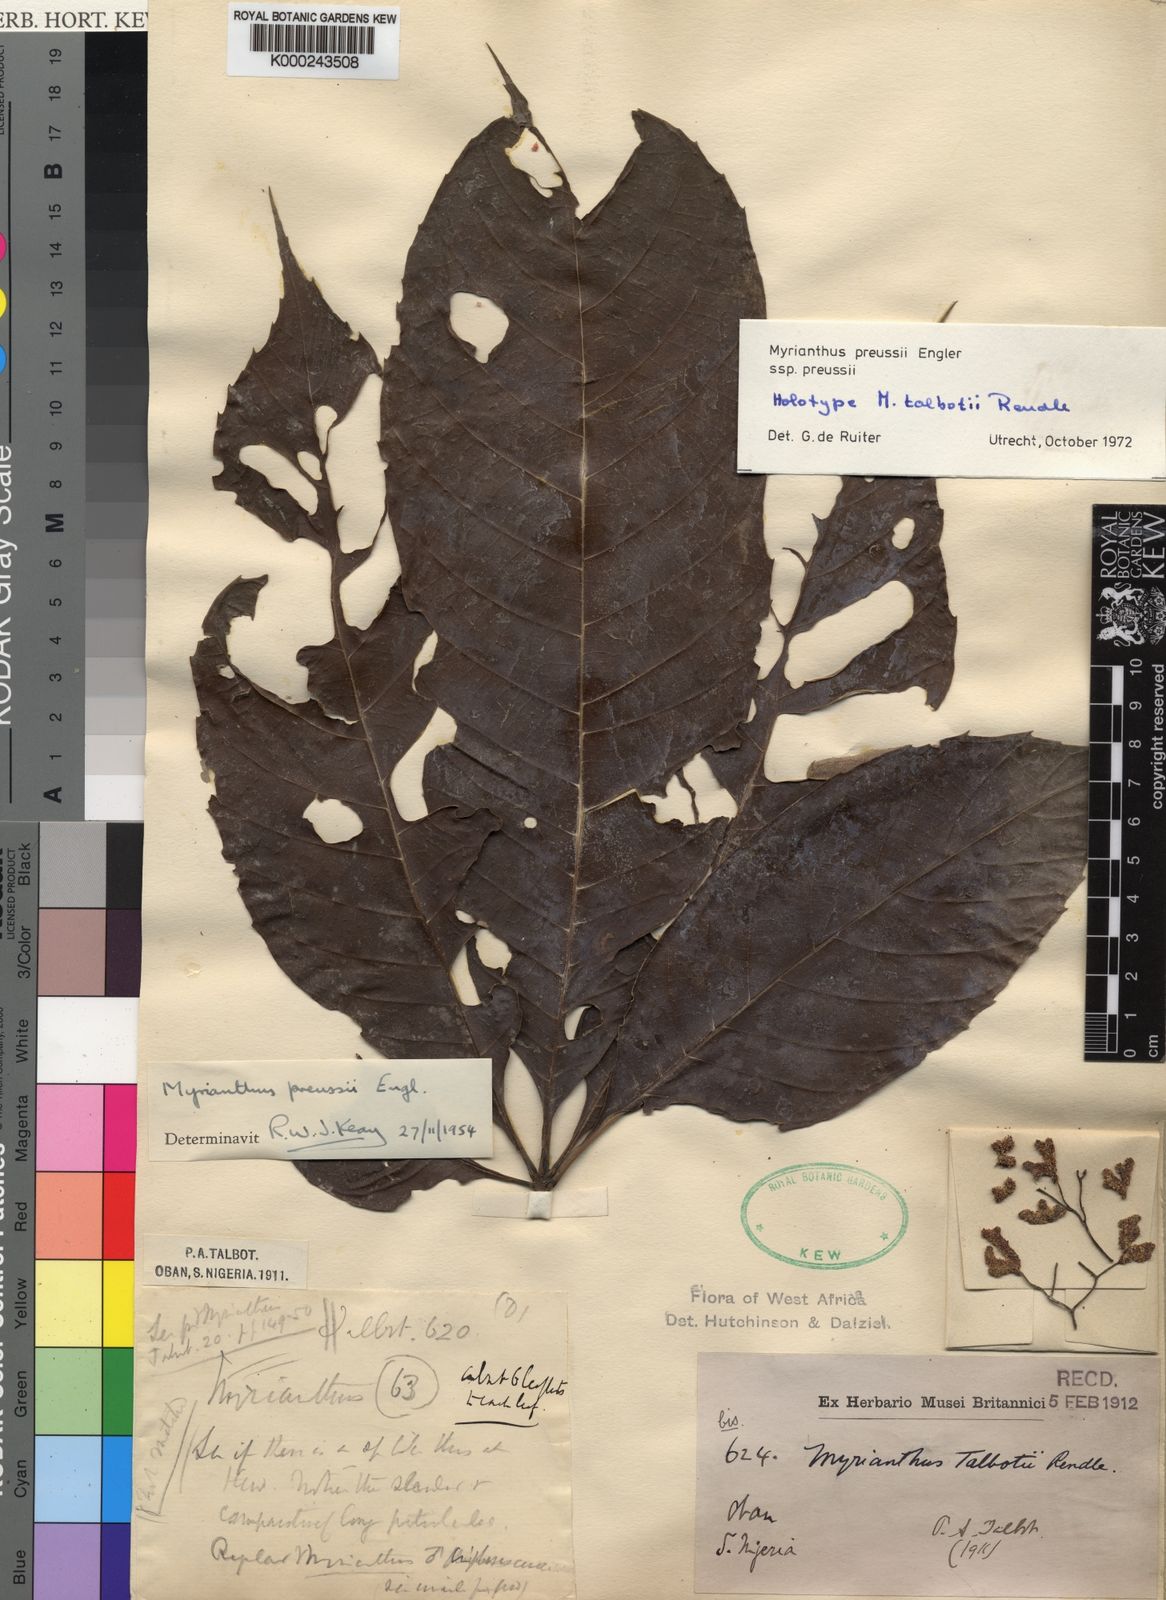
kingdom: Plantae
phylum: Tracheophyta
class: Magnoliopsida
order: Rosales
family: Urticaceae
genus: Myrianthus
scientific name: Myrianthus preussii
